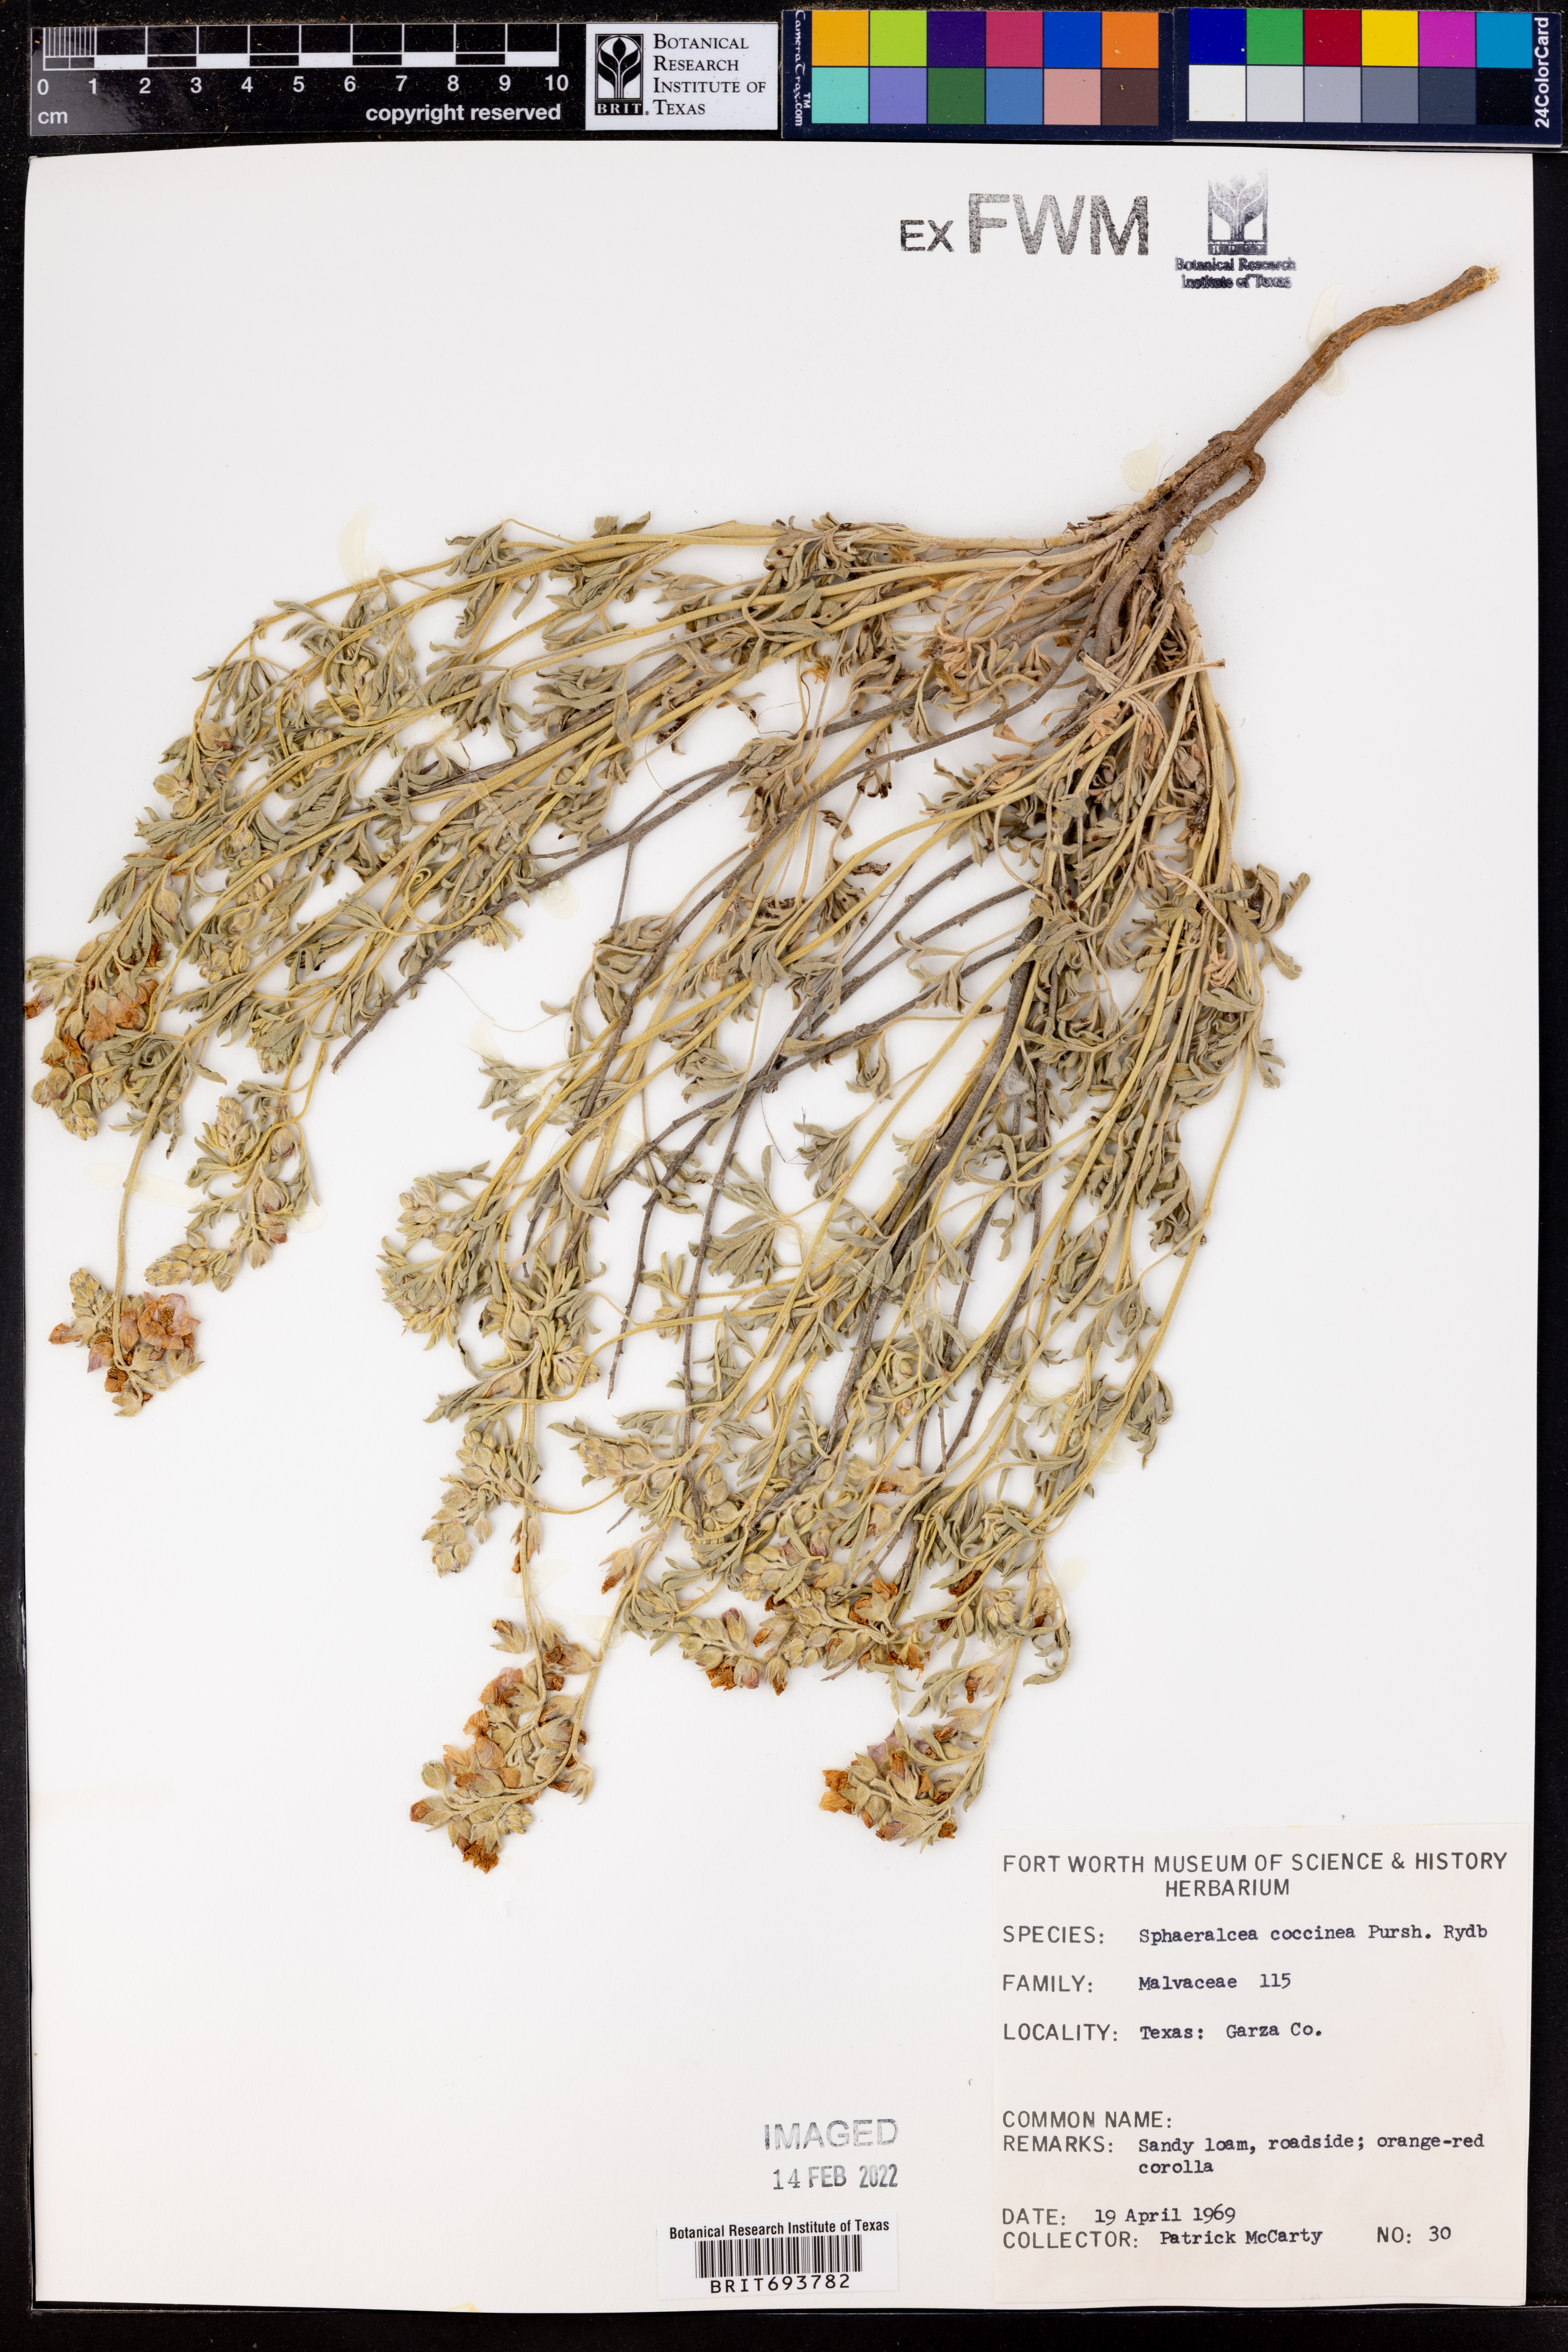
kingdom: Plantae
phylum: Tracheophyta
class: Magnoliopsida
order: Malvales
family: Malvaceae
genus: Sphaeralcea
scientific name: Sphaeralcea coccinea
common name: Moss-rose
